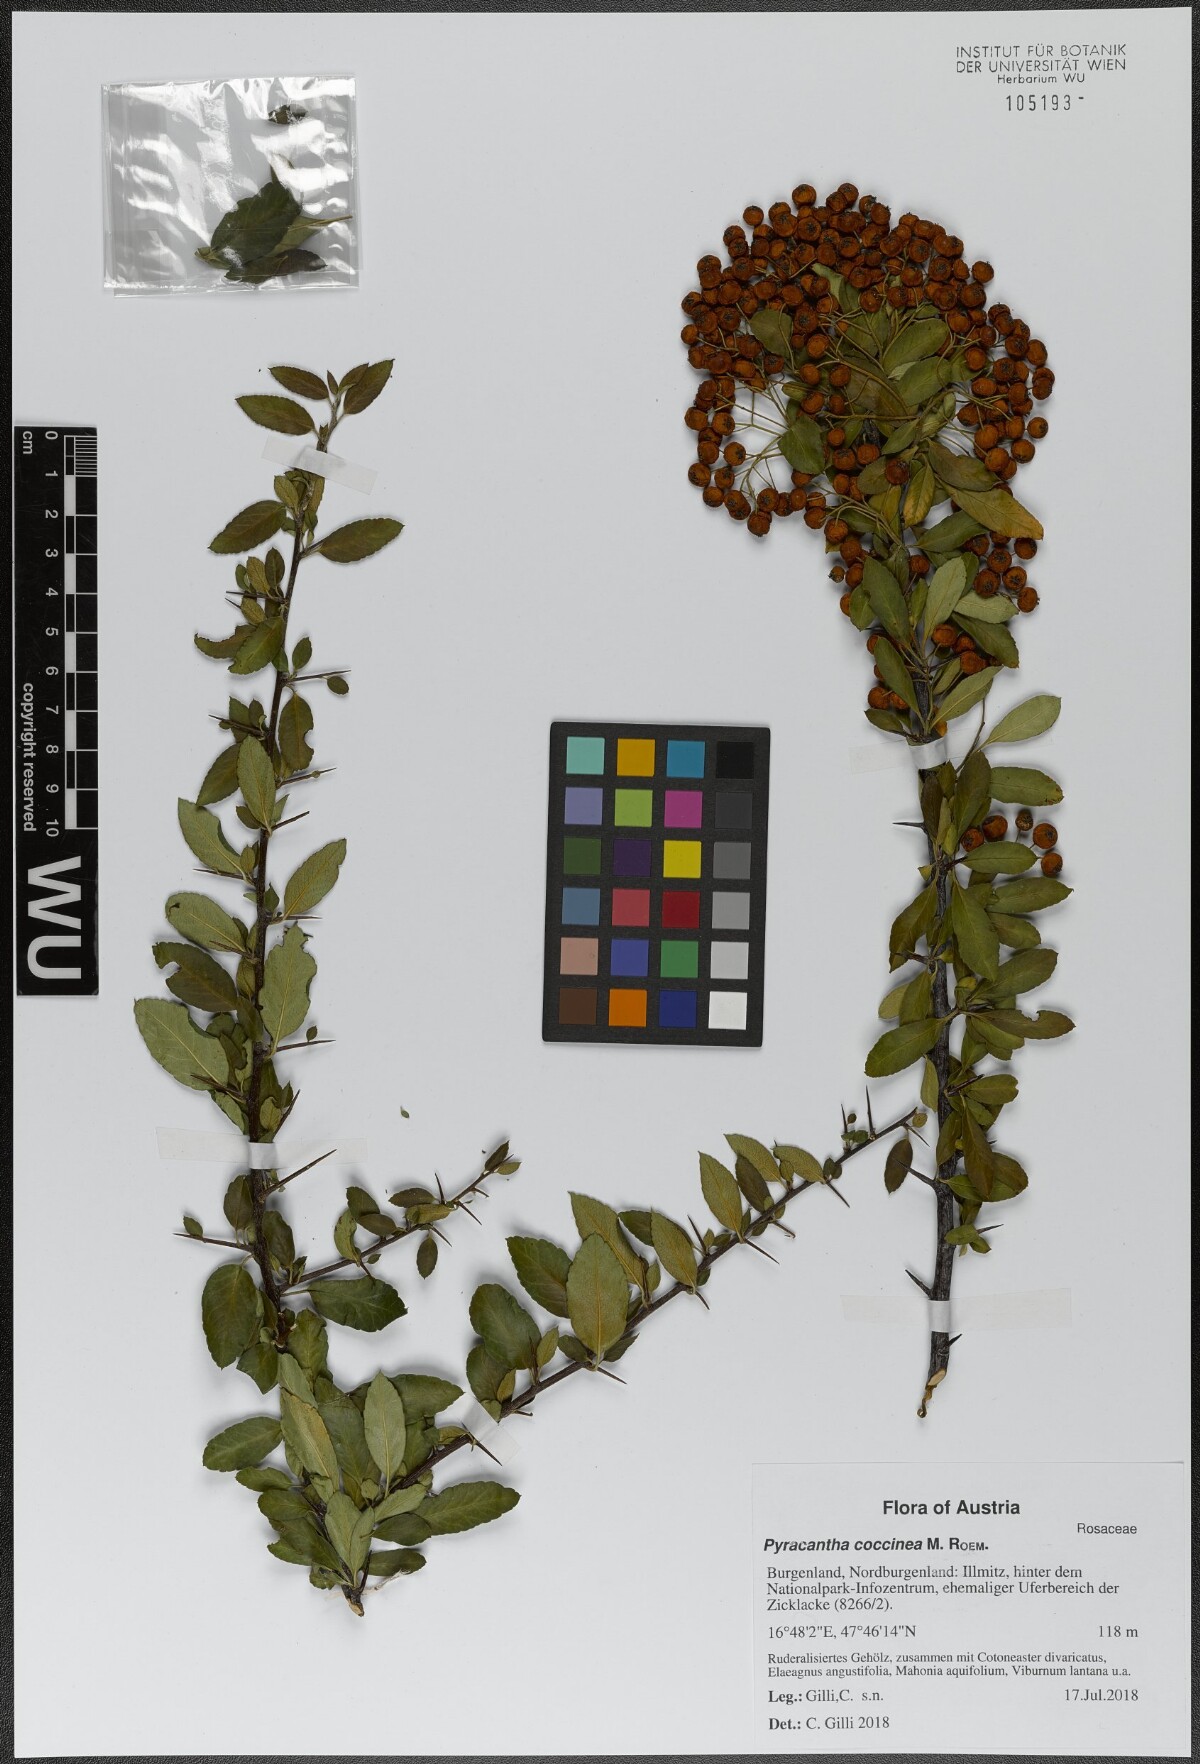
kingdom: Plantae
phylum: Tracheophyta
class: Magnoliopsida
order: Rosales
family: Rosaceae
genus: Pyracantha
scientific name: Pyracantha coccinea
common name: Firethorn
